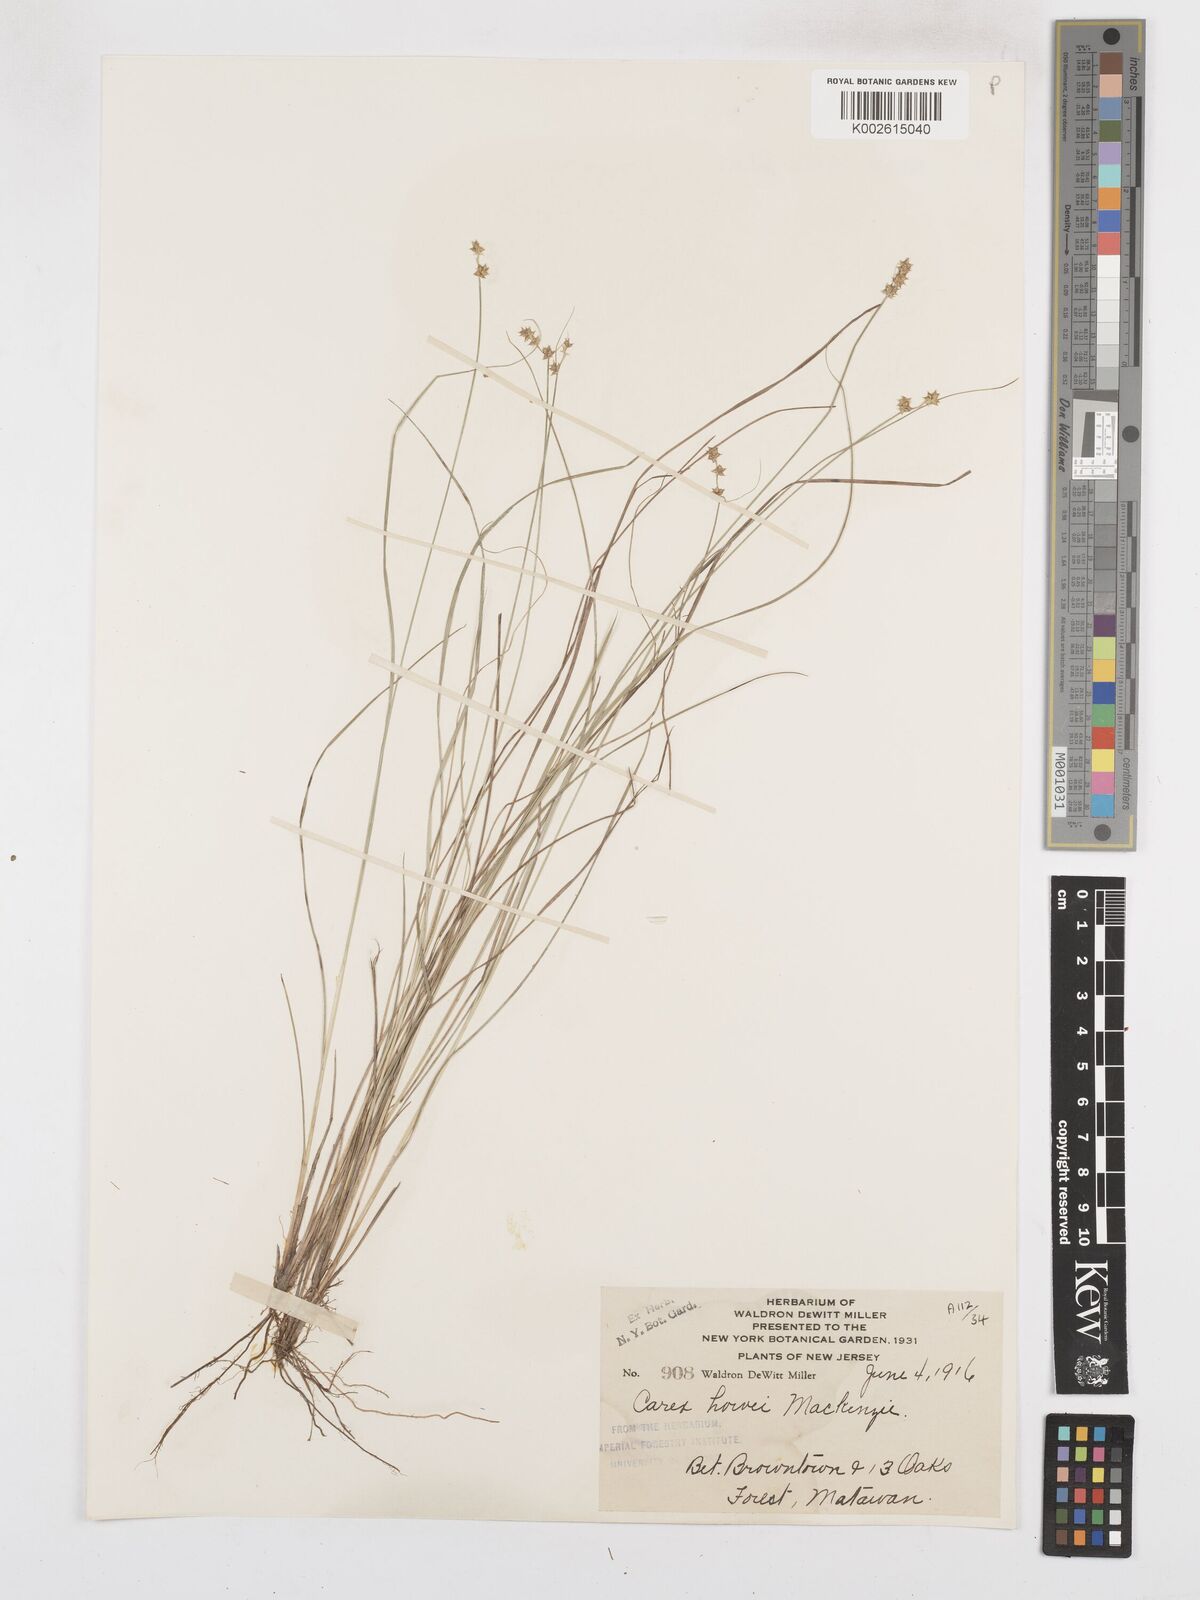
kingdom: Plantae
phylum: Tracheophyta
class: Liliopsida
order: Poales
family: Cyperaceae
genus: Carex
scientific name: Carex atlantica
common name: Atlantic sedge
